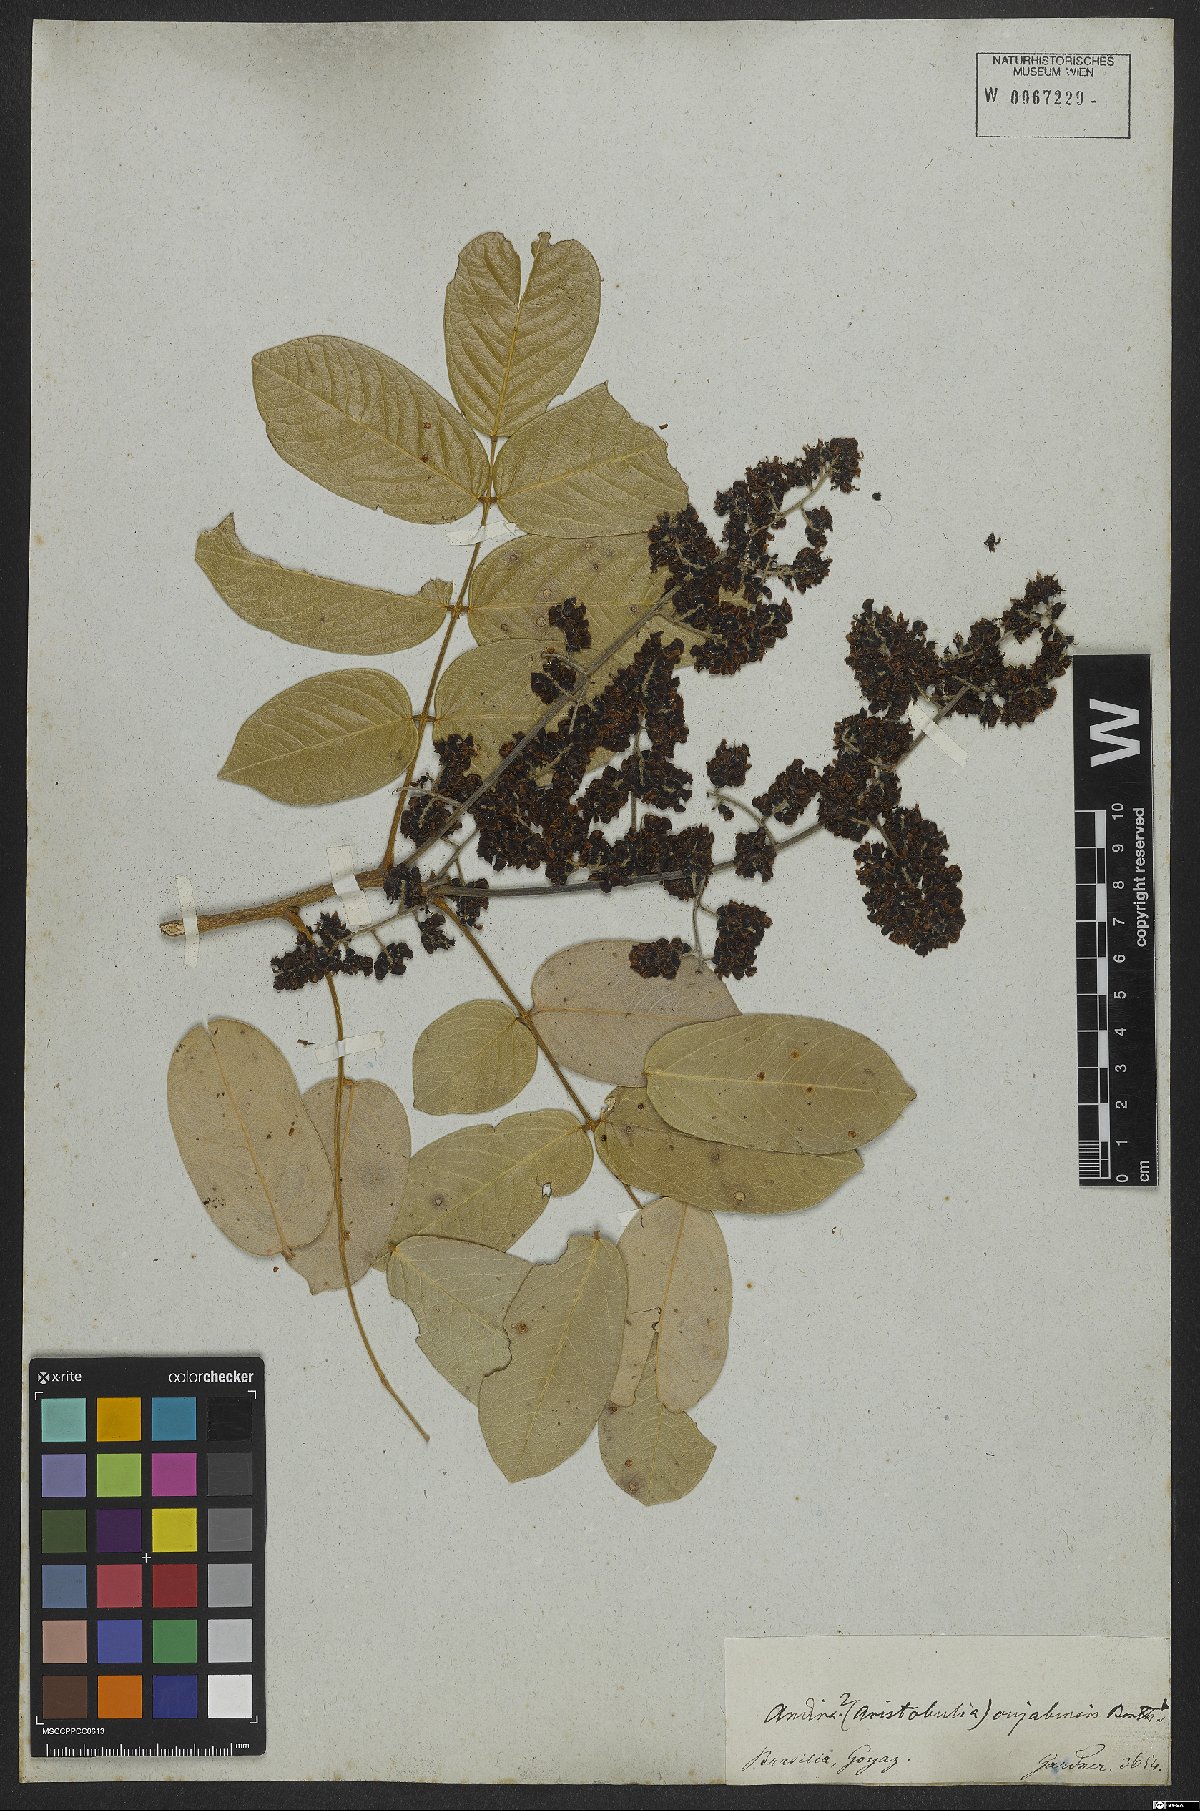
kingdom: Plantae
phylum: Tracheophyta
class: Magnoliopsida
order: Fabales
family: Fabaceae
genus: Andira
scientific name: Andira cujabensis
